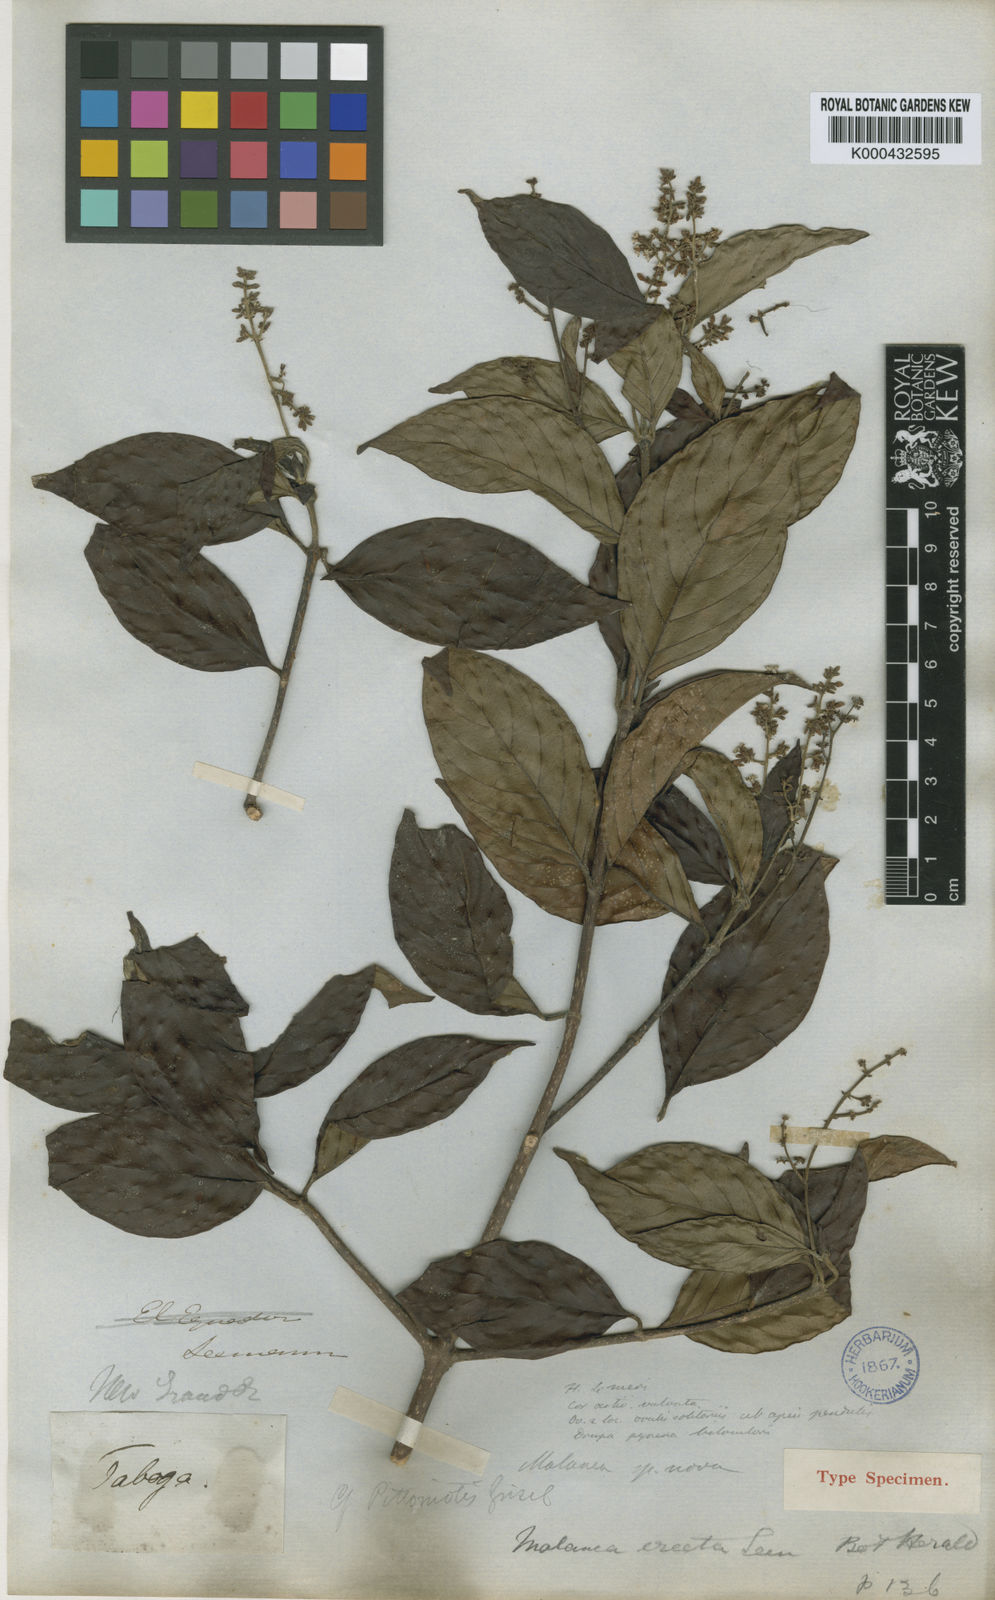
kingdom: Plantae
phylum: Tracheophyta
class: Magnoliopsida
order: Gentianales
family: Rubiaceae
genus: Malanea
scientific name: Malanea erecta
